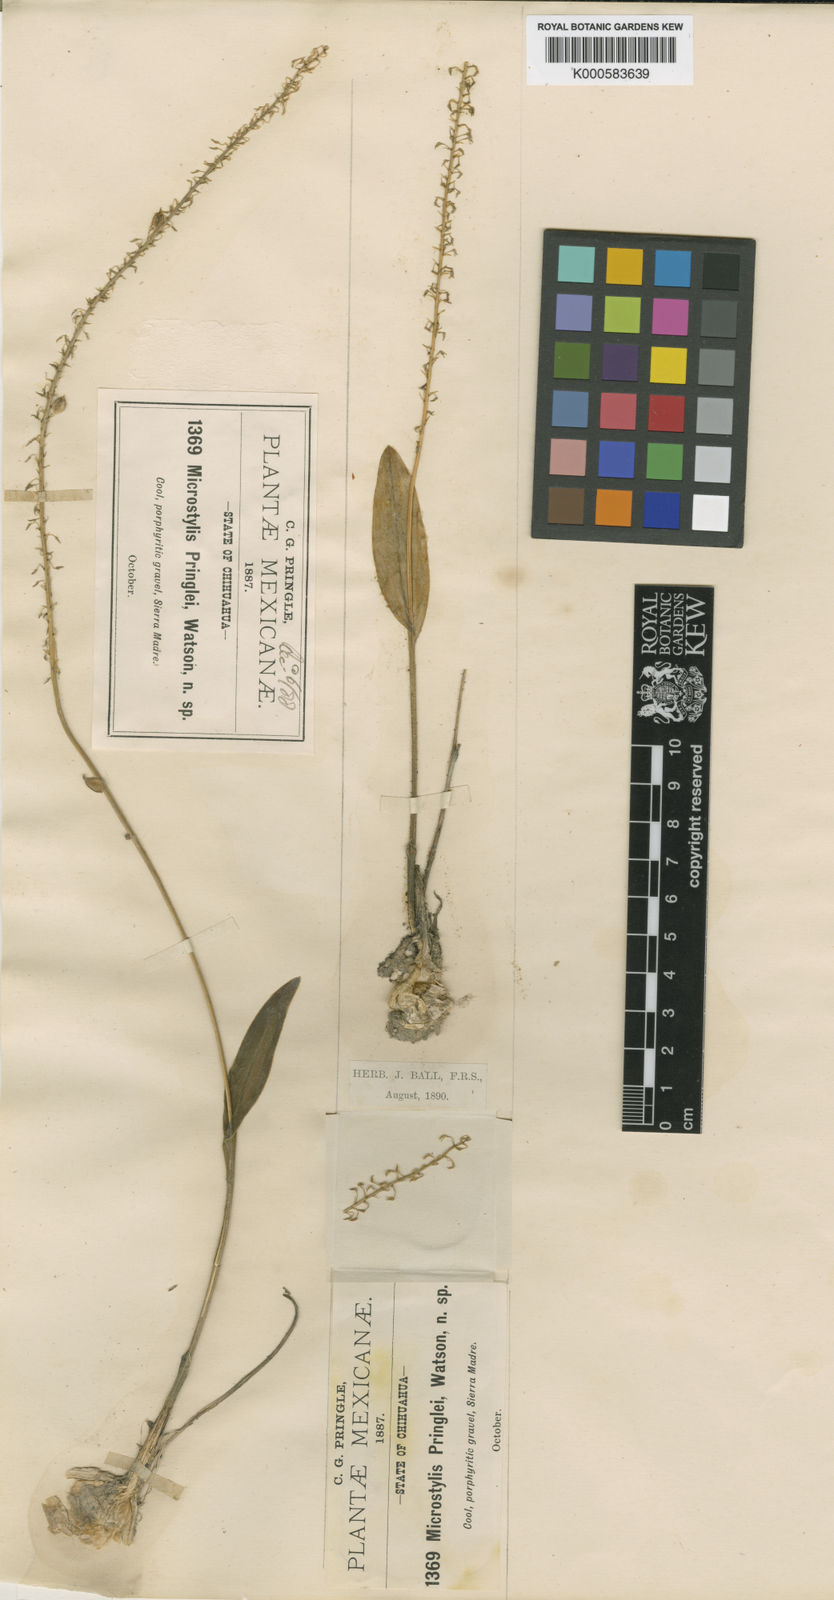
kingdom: Plantae
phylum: Tracheophyta
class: Liliopsida
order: Asparagales
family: Orchidaceae
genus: Malaxis
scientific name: Malaxis pringlei
